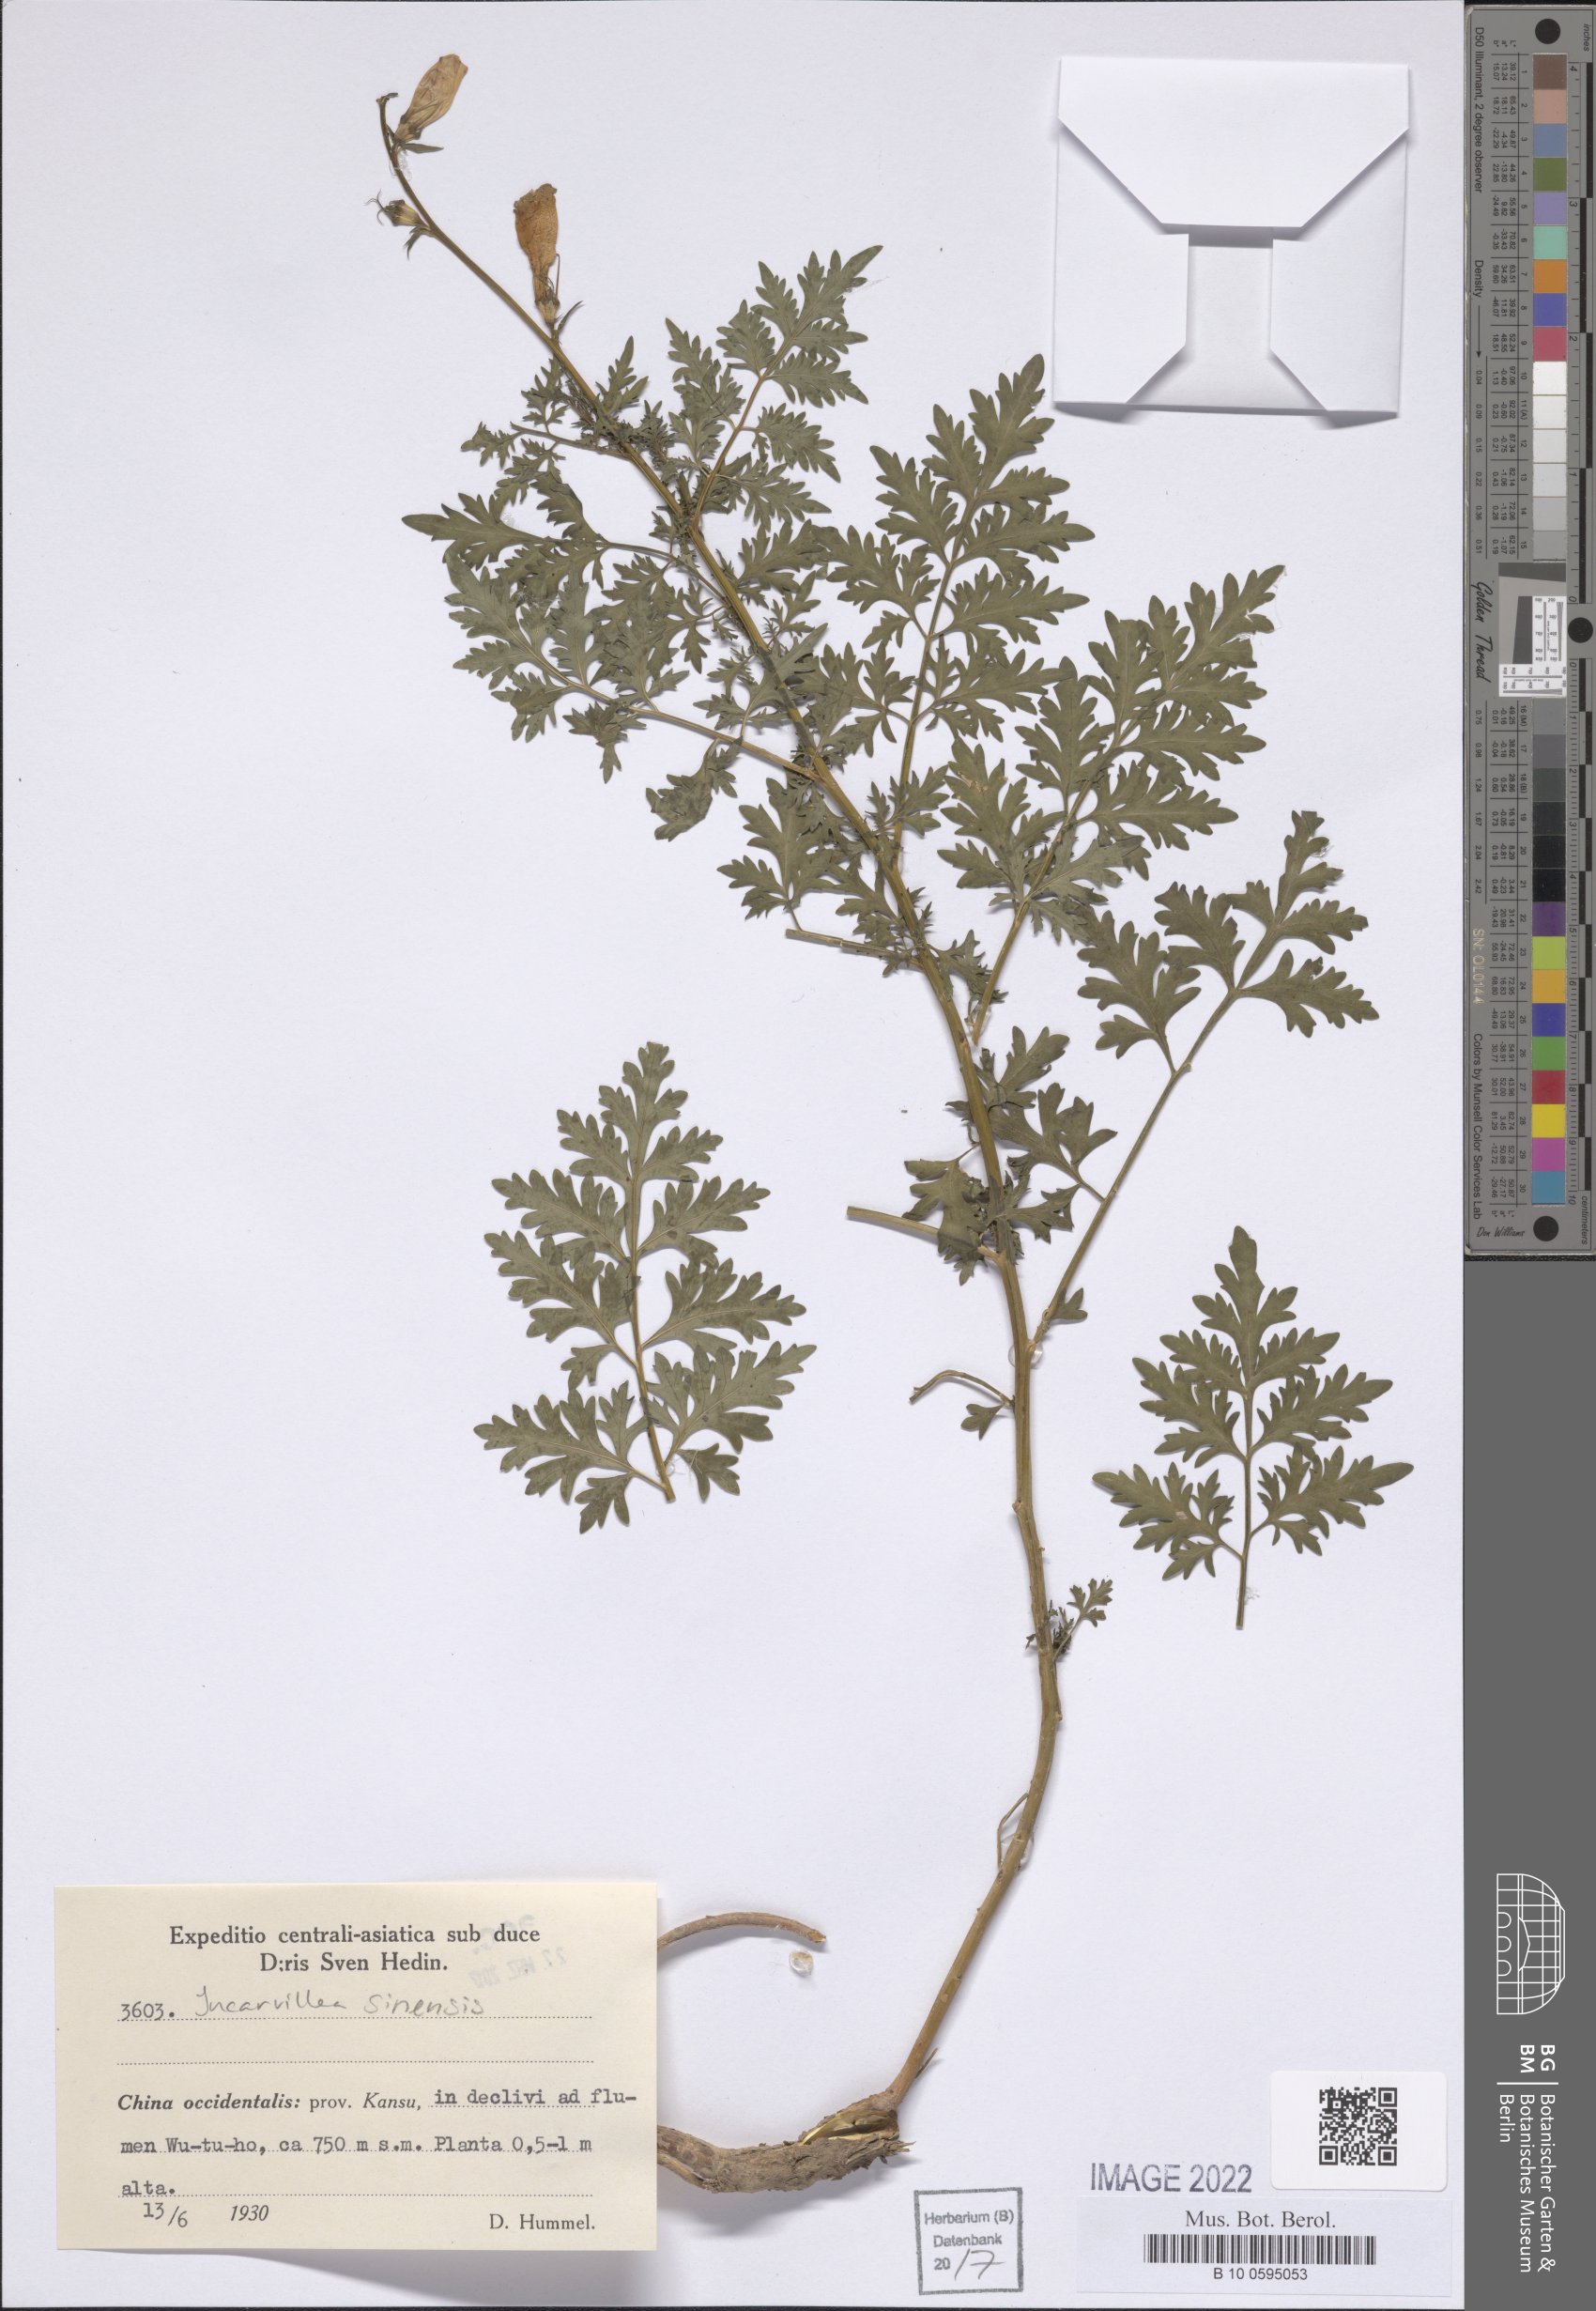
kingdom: Plantae
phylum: Tracheophyta
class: Magnoliopsida
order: Lamiales
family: Bignoniaceae
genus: Incarvillea
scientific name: Incarvillea sinensis
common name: Trumpet-flower
